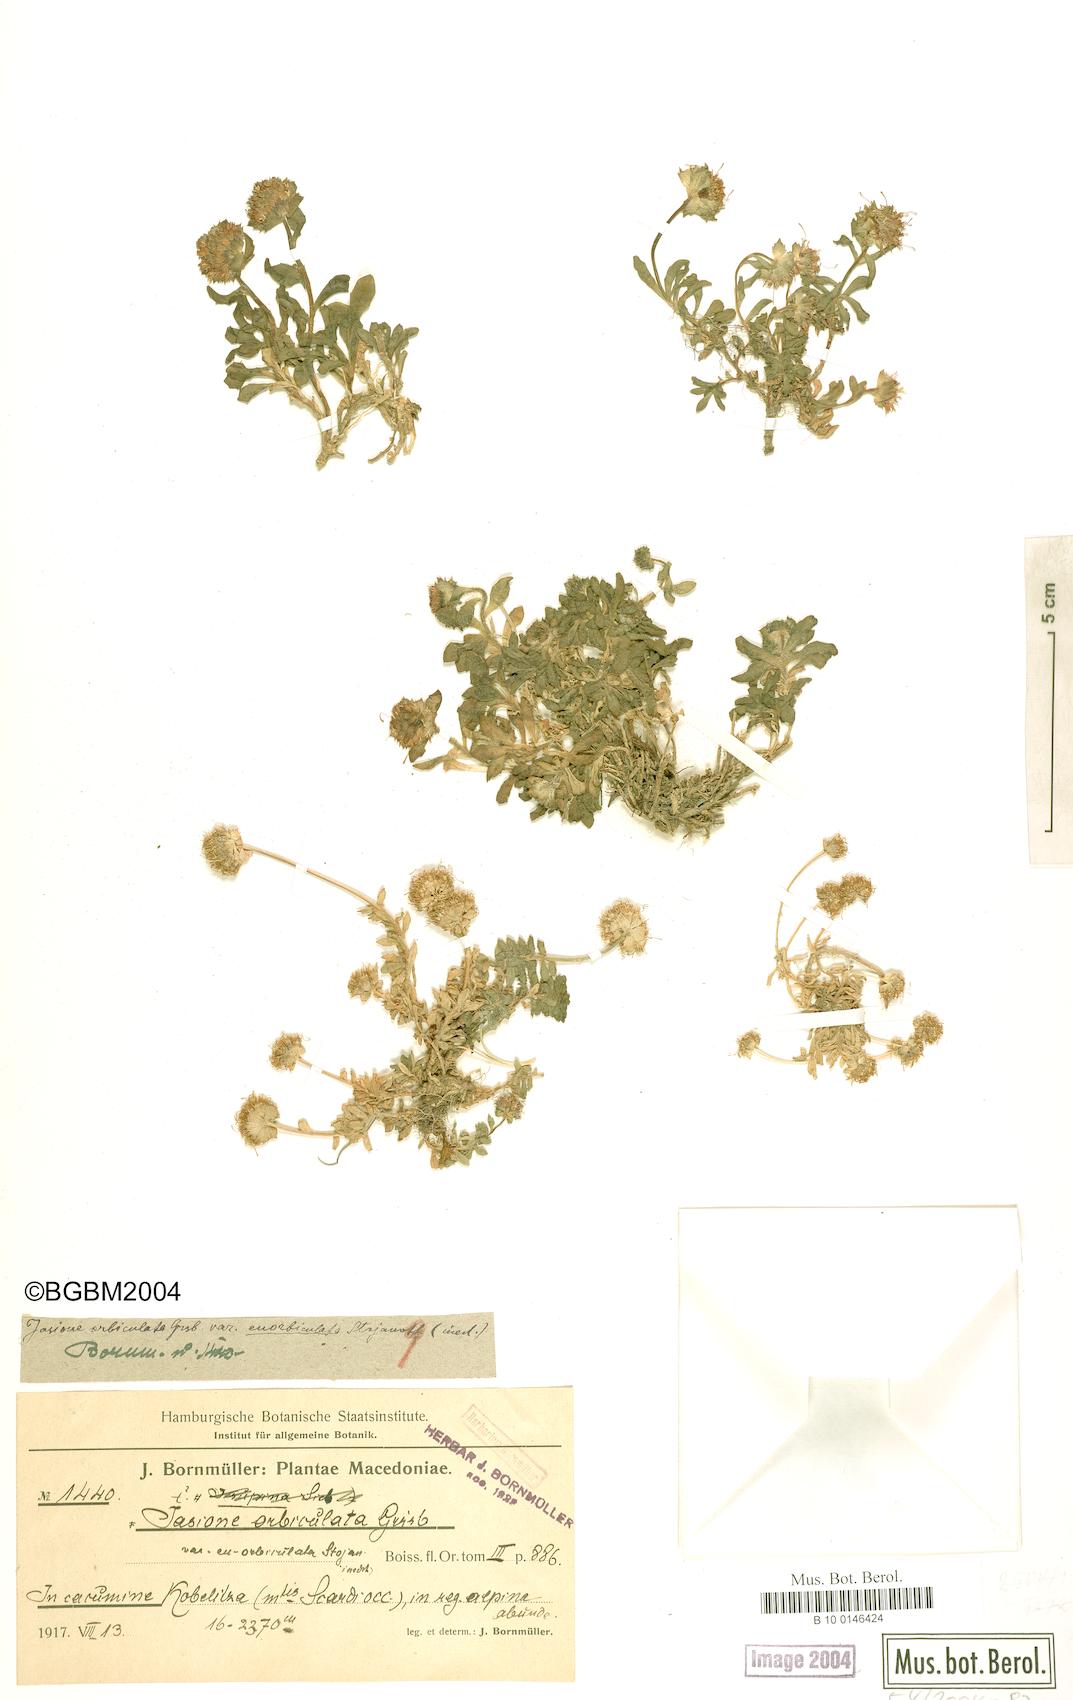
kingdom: Plantae
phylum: Tracheophyta
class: Magnoliopsida
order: Asterales
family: Campanulaceae
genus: Jasione
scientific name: Jasione orbiculata
